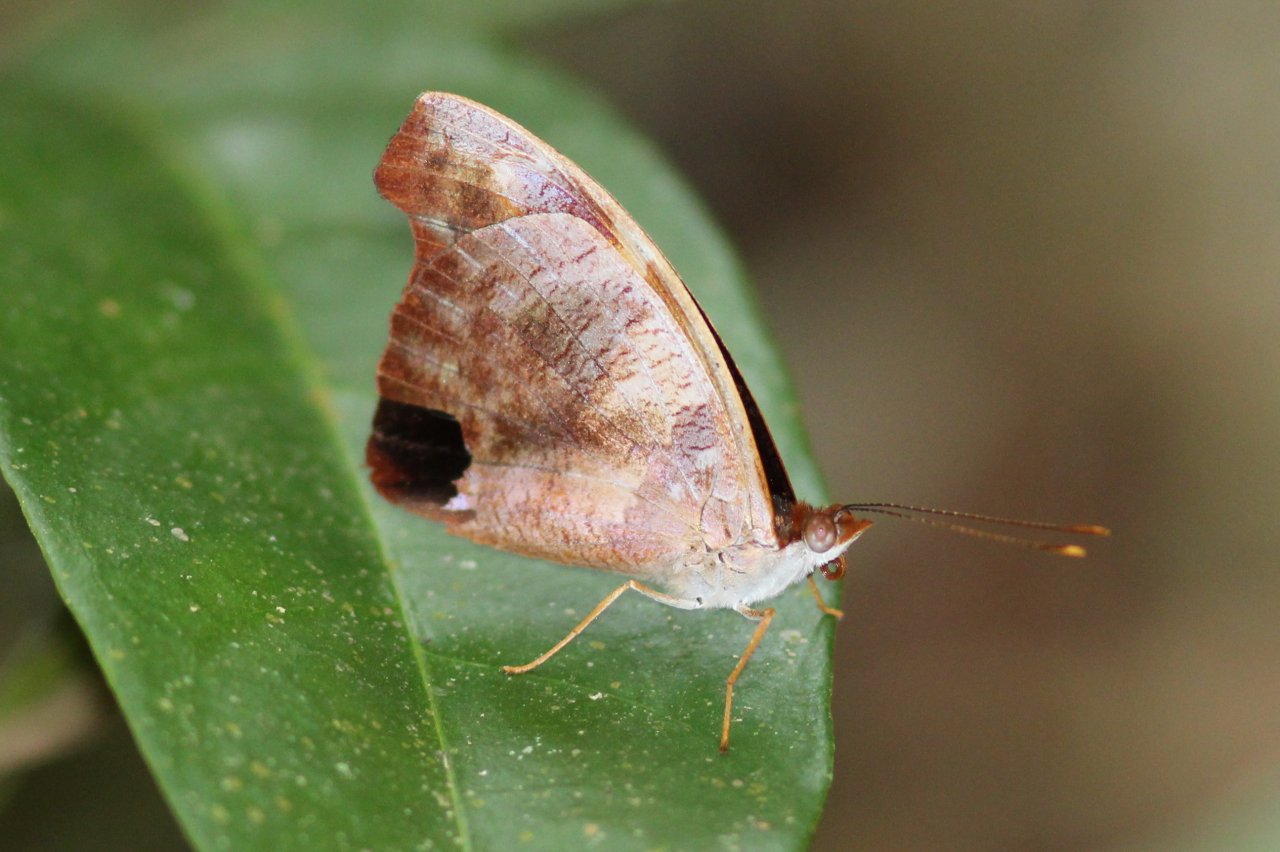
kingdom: Animalia
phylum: Arthropoda
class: Insecta
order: Lepidoptera
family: Nymphalidae
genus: Catonephele
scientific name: Catonephele mexicana
